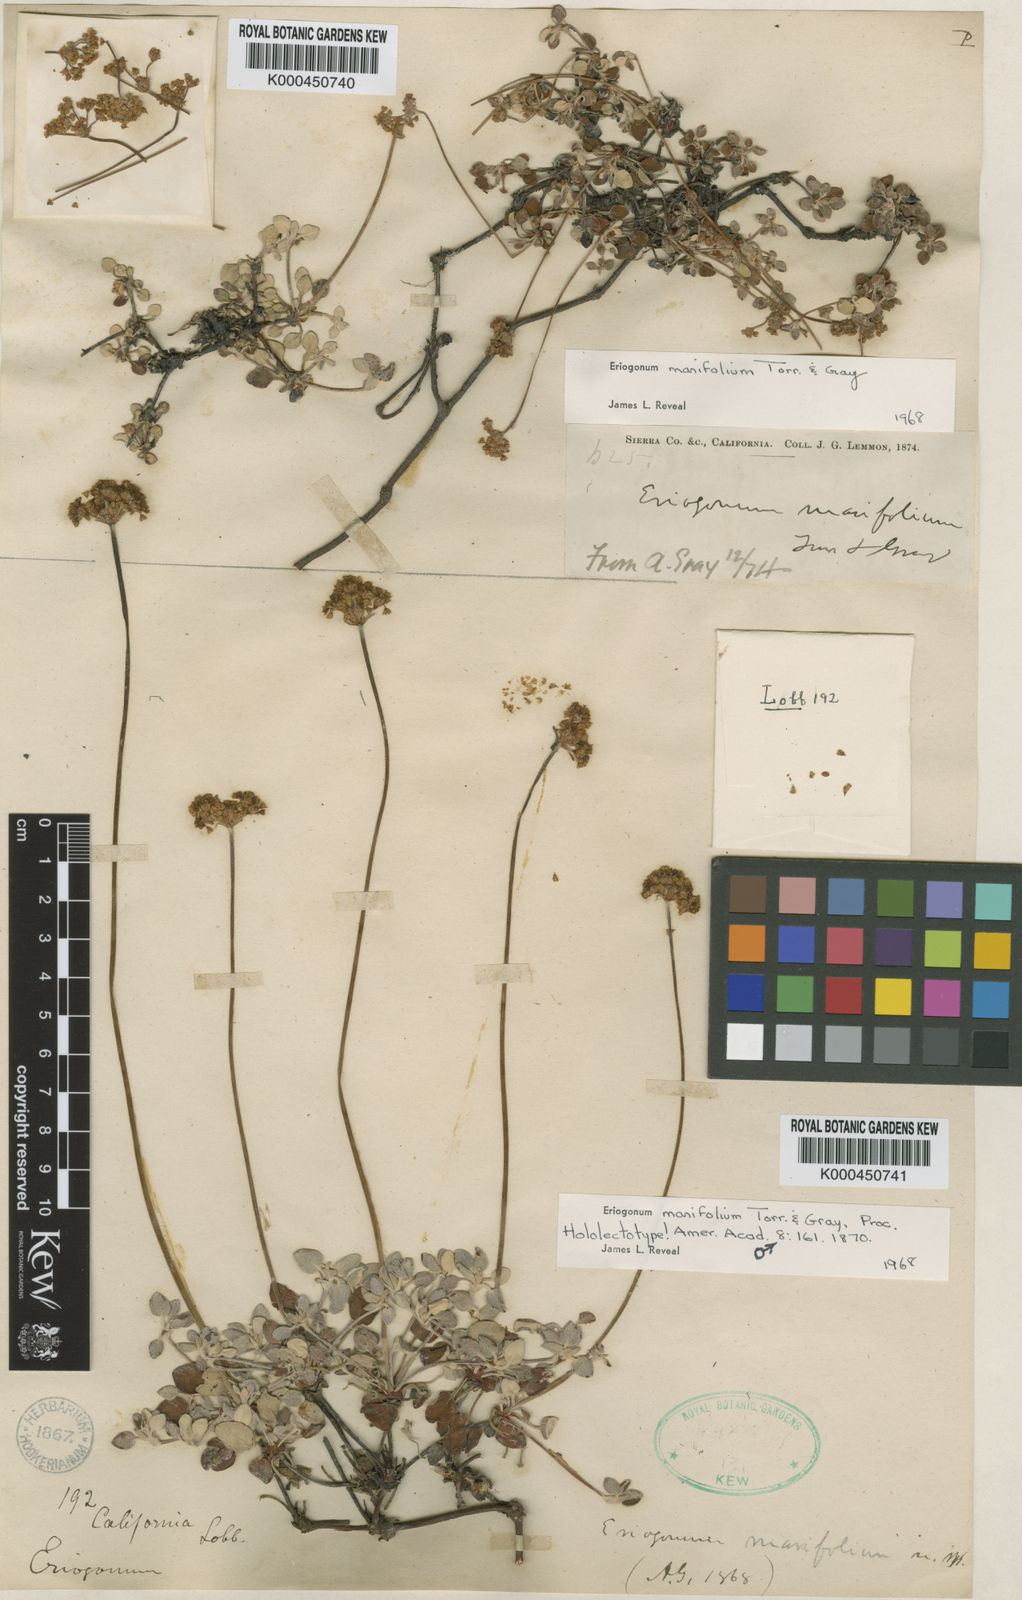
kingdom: Plantae
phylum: Tracheophyta
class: Magnoliopsida
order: Caryophyllales
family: Polygonaceae
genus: Eriogonum
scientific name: Eriogonum marifolium
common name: Marum-leaf wild buckwheat
